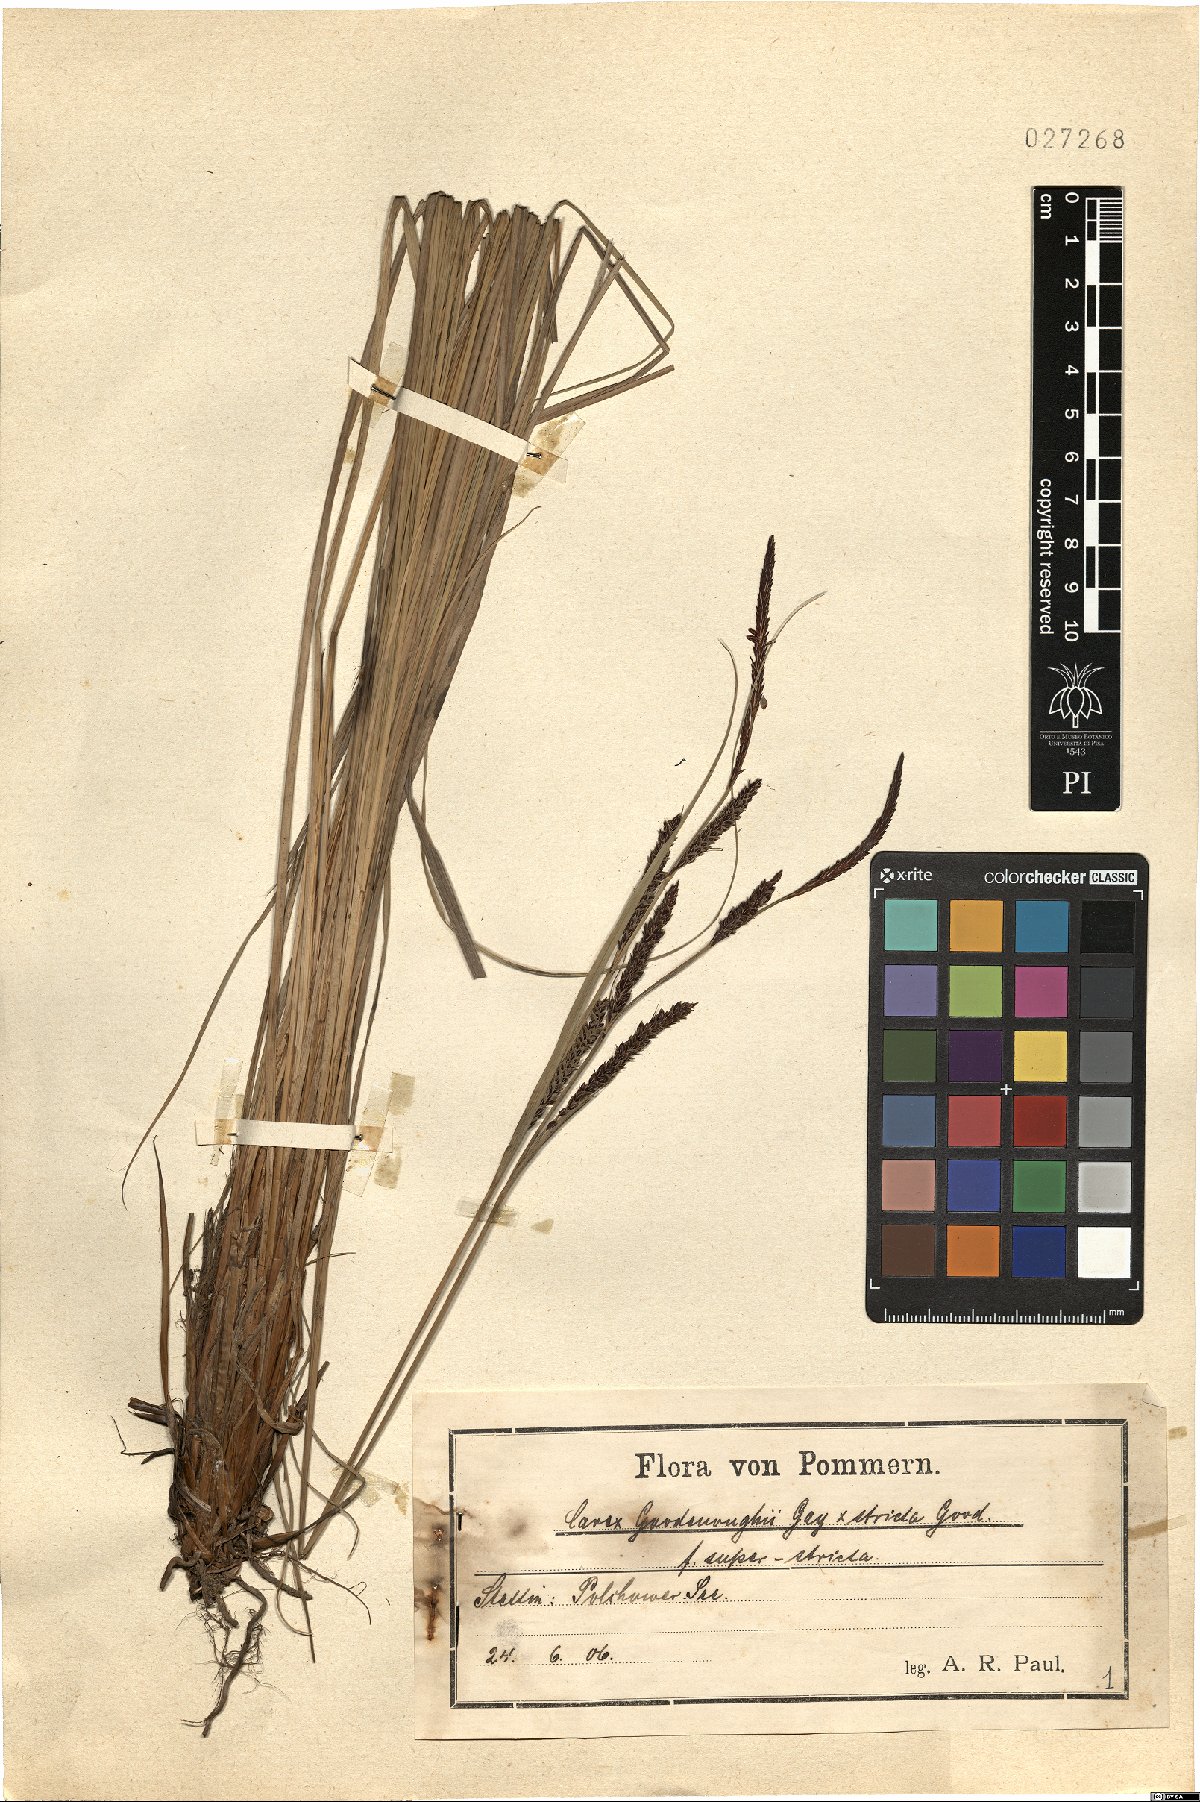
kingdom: Plantae
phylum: Tracheophyta
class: Liliopsida
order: Poales
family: Cyperaceae
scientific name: Cyperaceae
